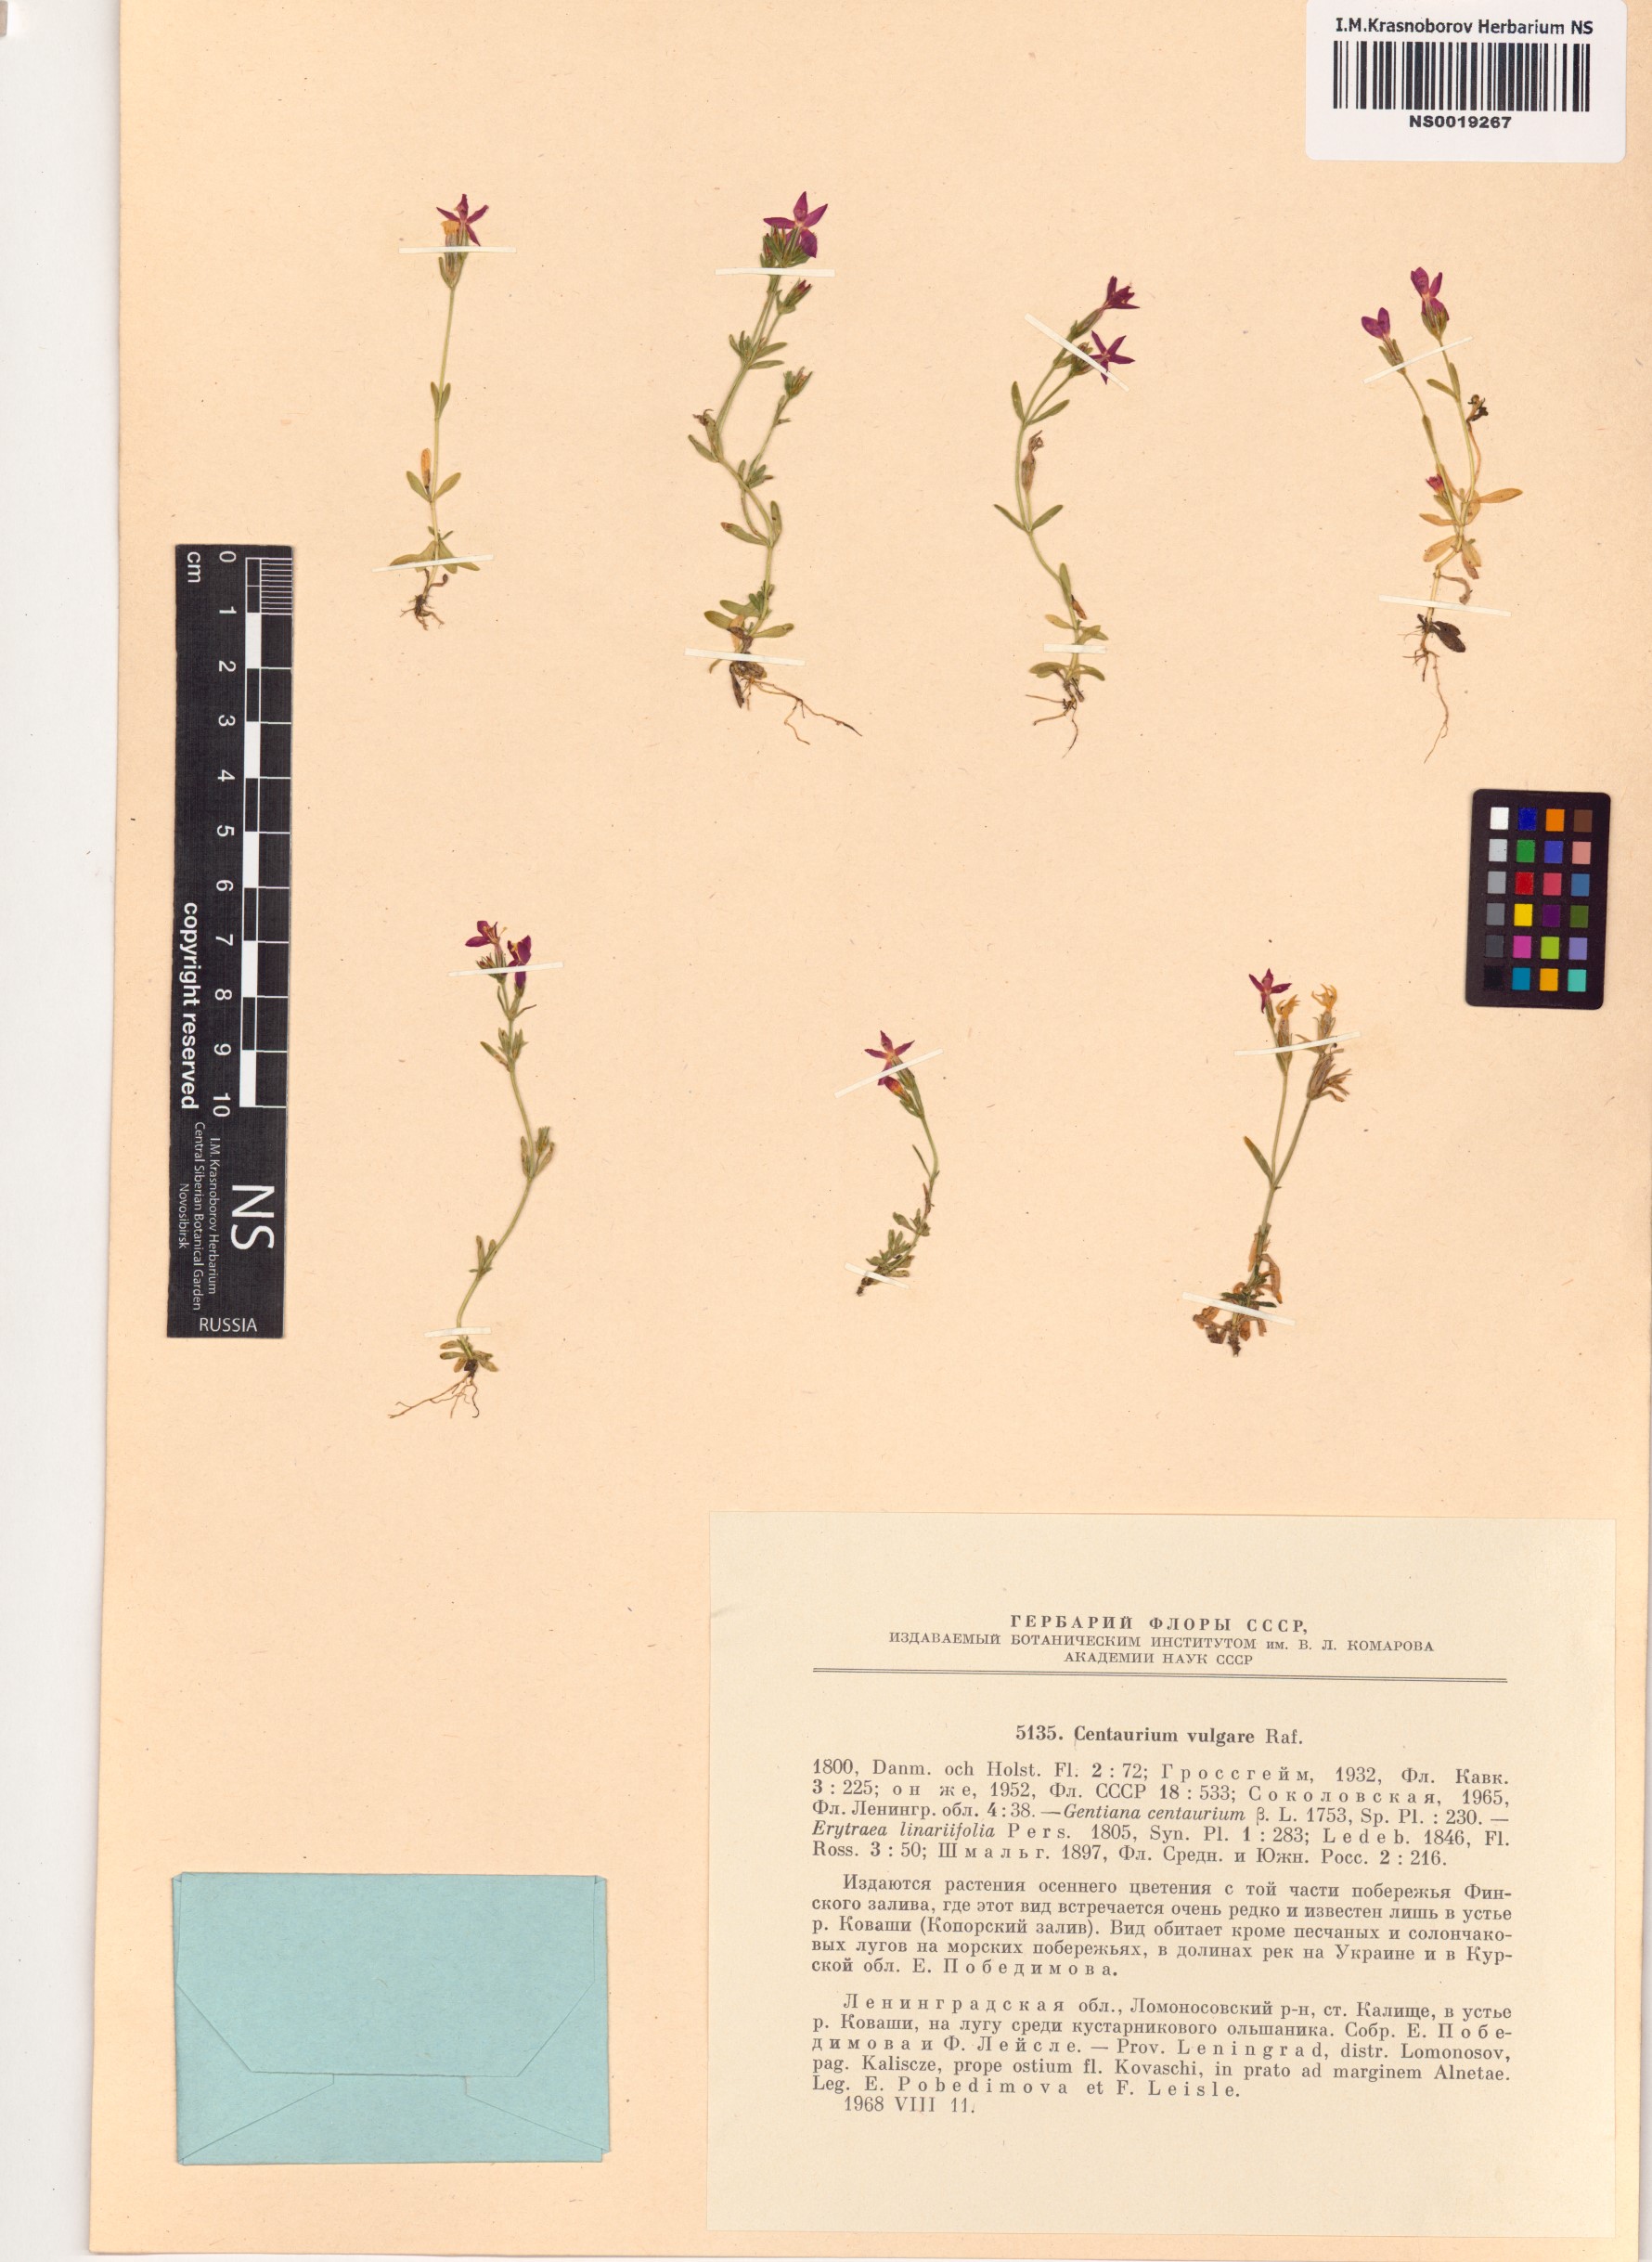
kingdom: Plantae
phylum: Tracheophyta
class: Magnoliopsida
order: Gentianales
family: Gentianaceae
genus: Centaurium
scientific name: Centaurium erythraea
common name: Common centaury
